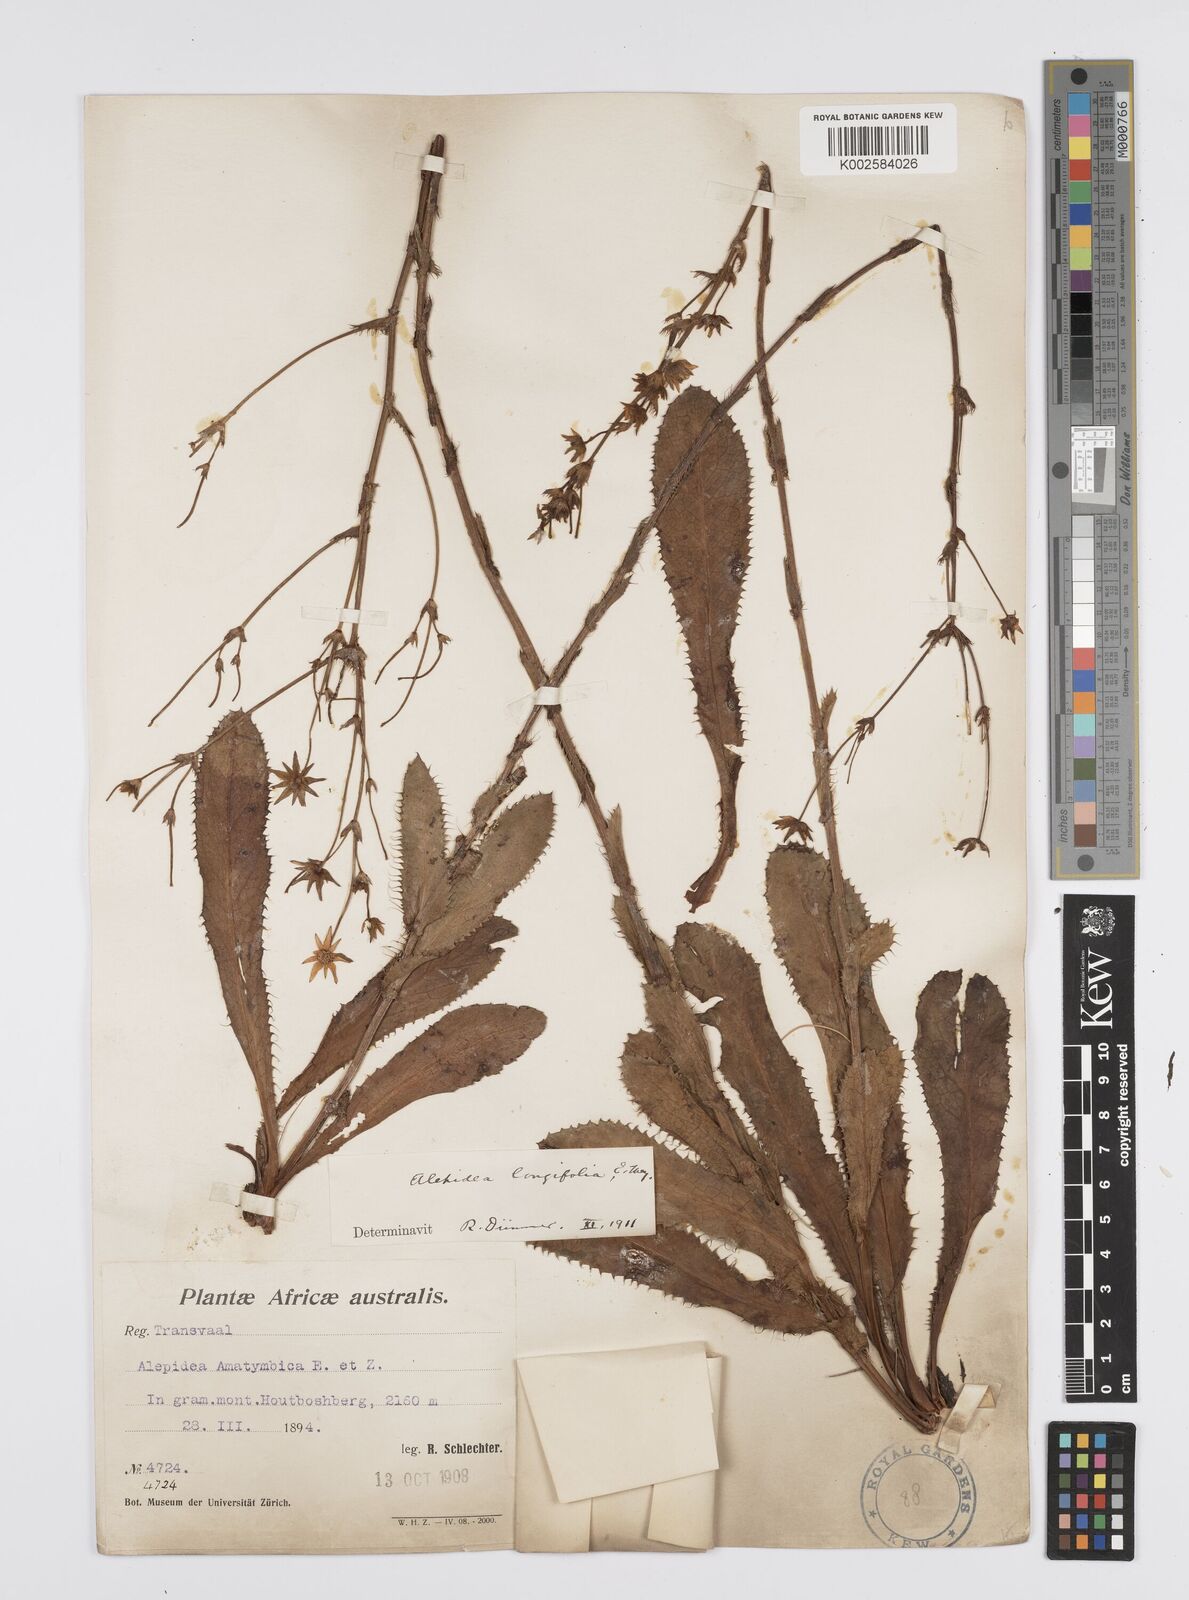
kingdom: Plantae
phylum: Tracheophyta
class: Magnoliopsida
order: Apiales
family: Apiaceae
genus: Alepidea
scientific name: Alepidea
